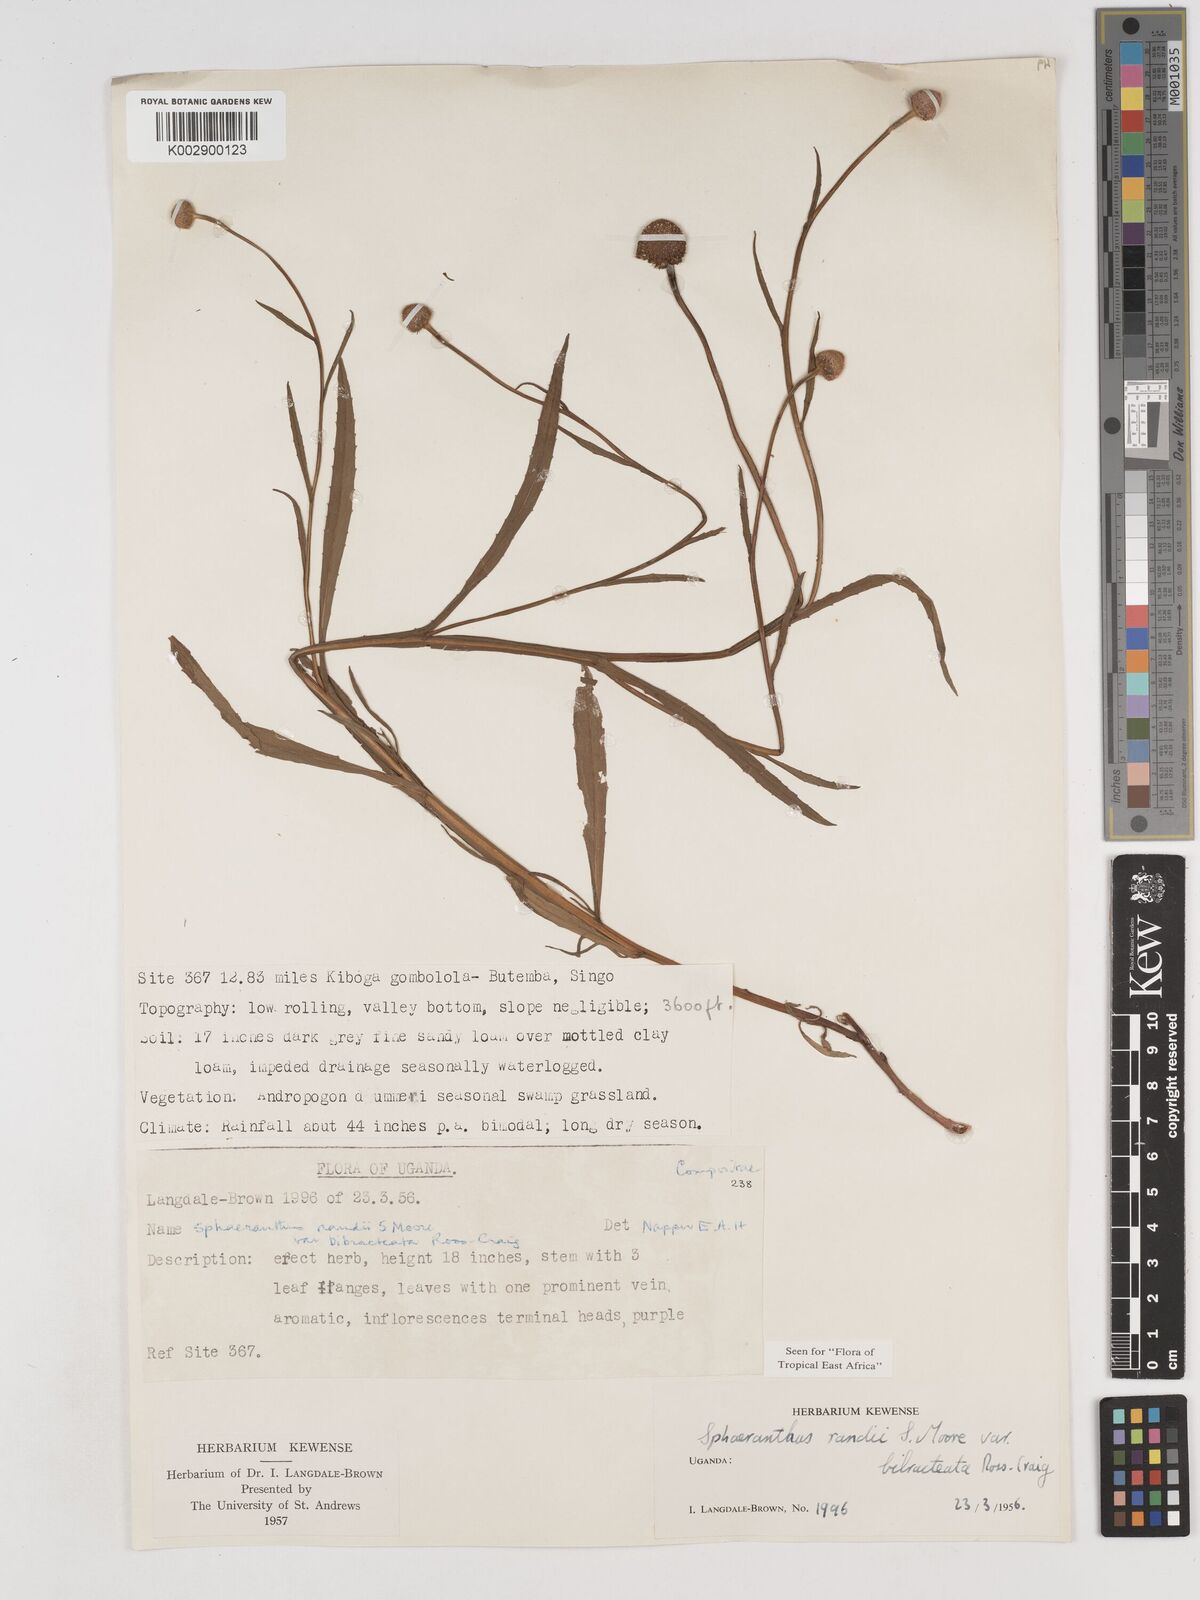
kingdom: Plantae
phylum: Tracheophyta
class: Magnoliopsida
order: Asterales
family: Asteraceae
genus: Sphaeranthus
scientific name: Sphaeranthus randii
